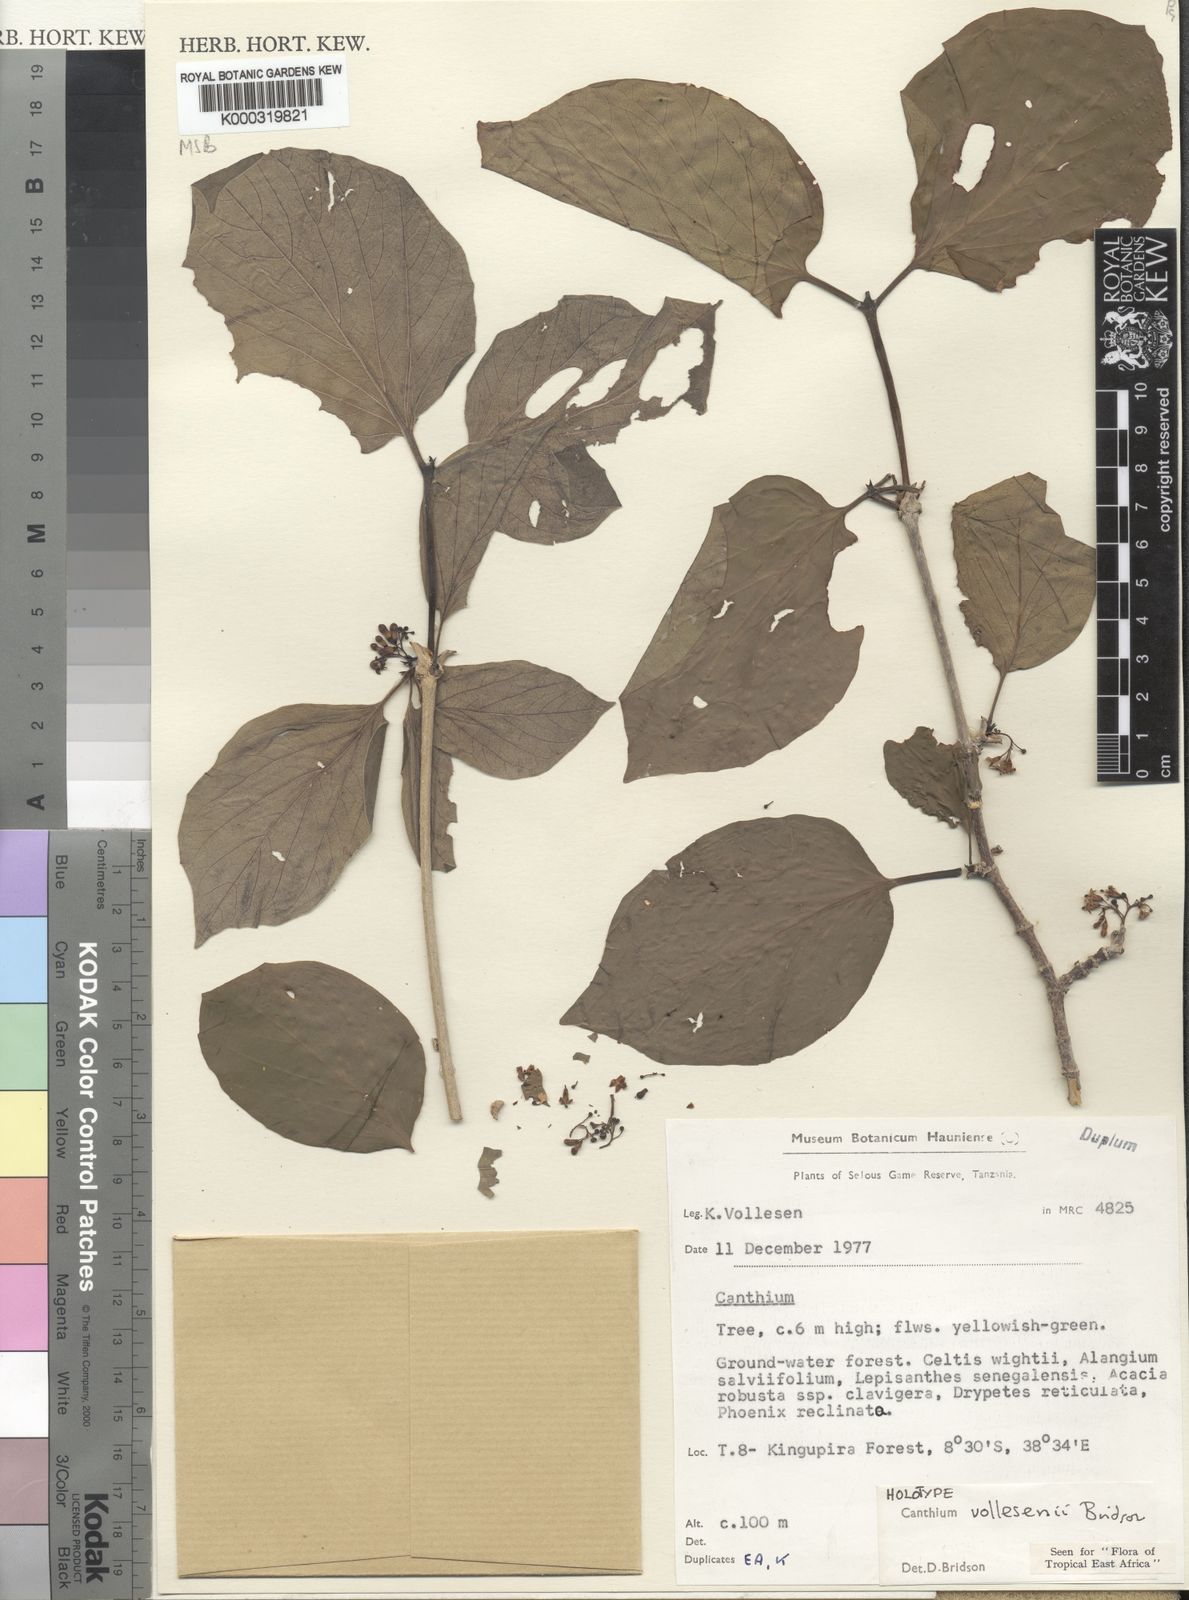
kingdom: Plantae
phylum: Tracheophyta
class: Magnoliopsida
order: Gentianales
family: Rubiaceae
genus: Afrocanthium
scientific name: Afrocanthium vollesenii
